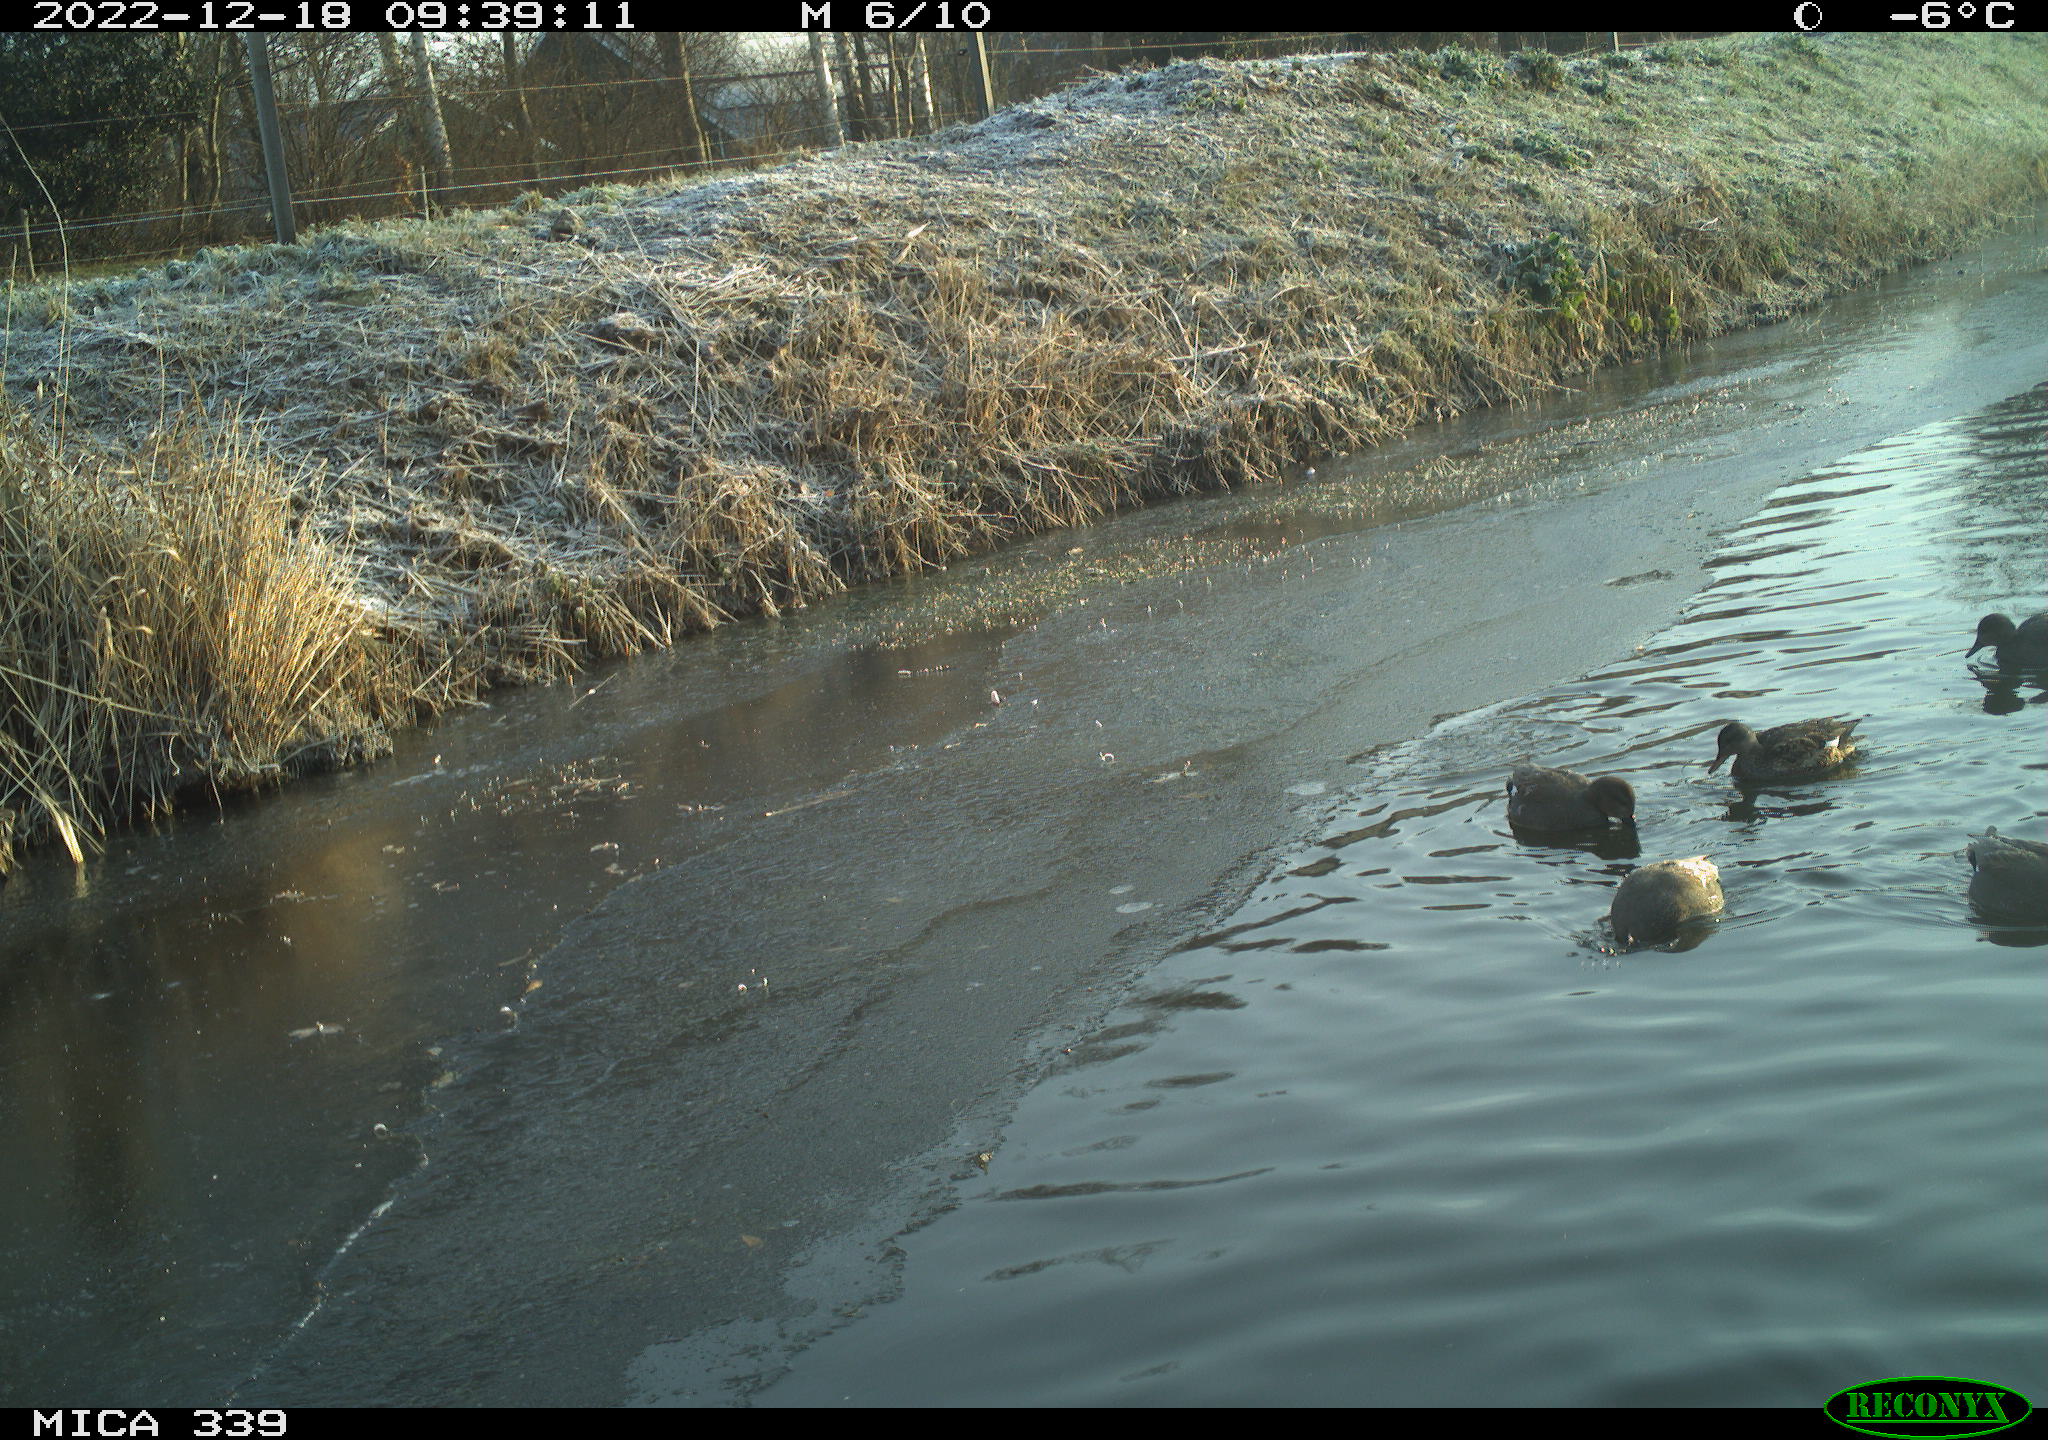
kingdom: Animalia
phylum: Chordata
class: Aves
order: Gruiformes
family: Rallidae
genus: Gallinula
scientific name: Gallinula chloropus
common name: Common moorhen
